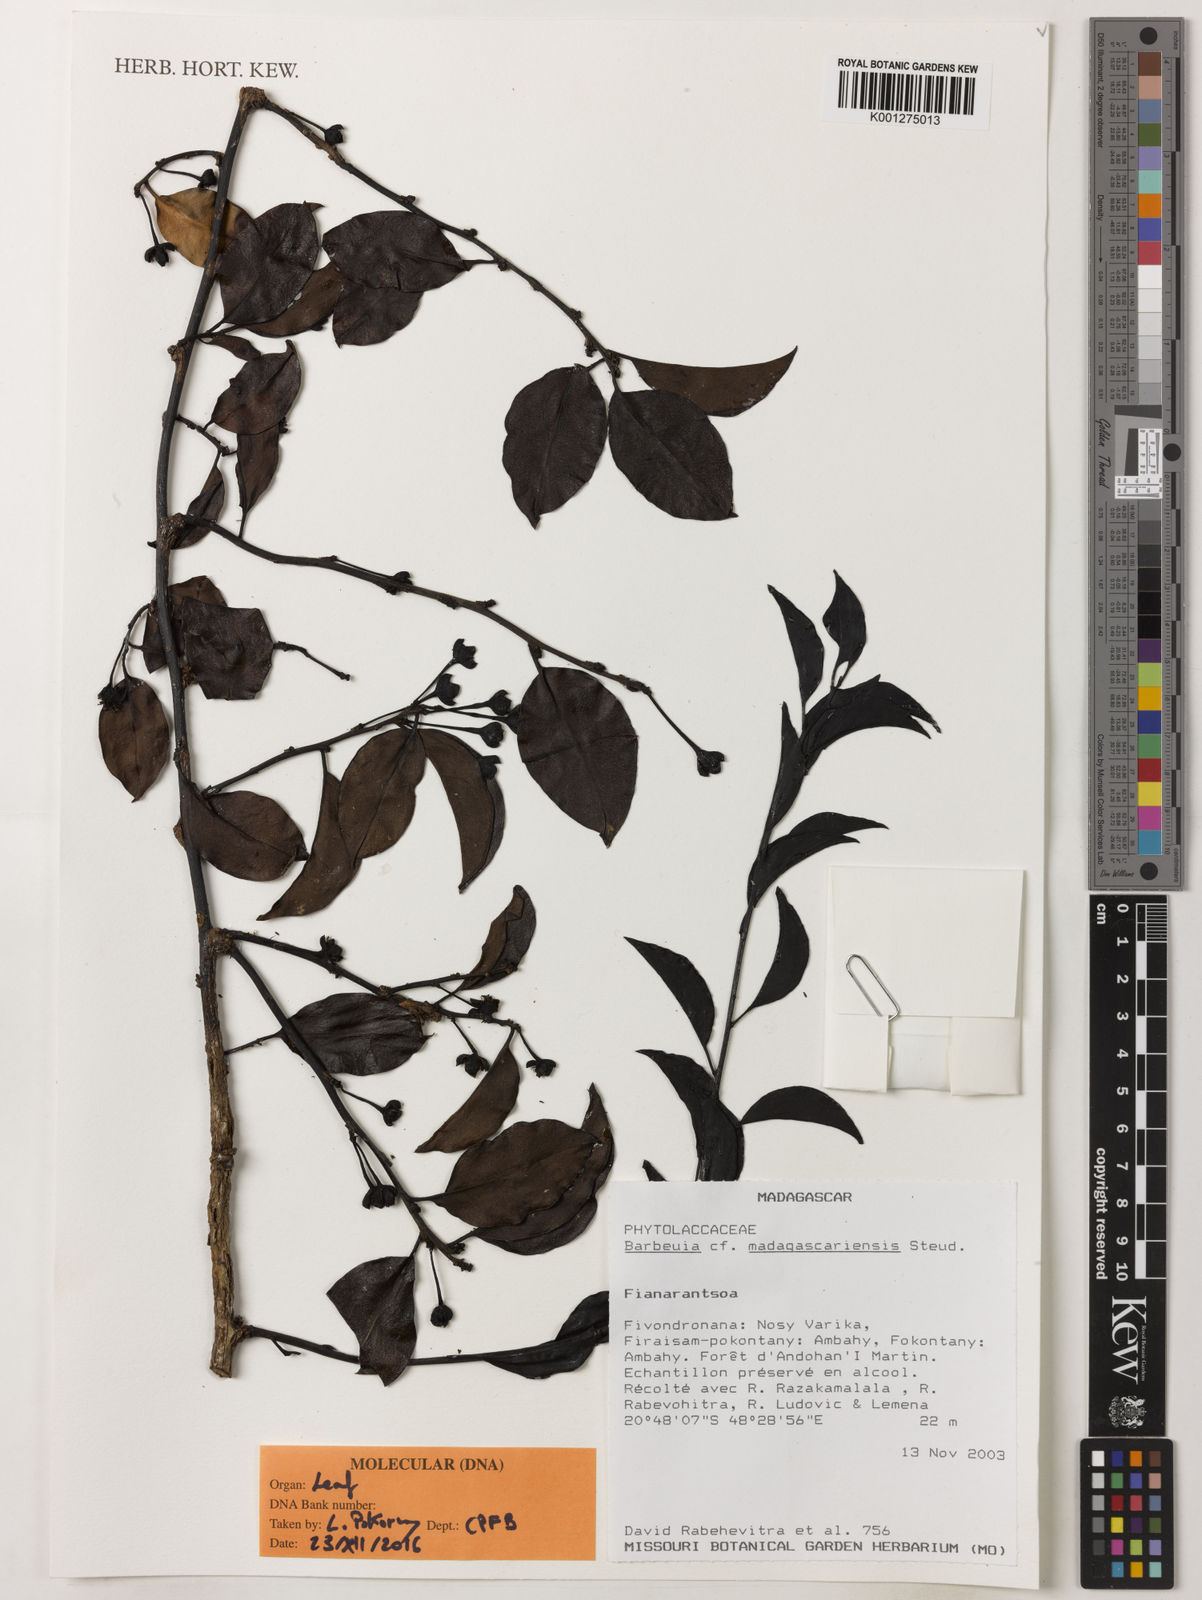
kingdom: Plantae
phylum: Tracheophyta
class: Magnoliopsida
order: Caryophyllales
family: Barbeuiaceae
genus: Barbeuia
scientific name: Barbeuia madagascariensis
